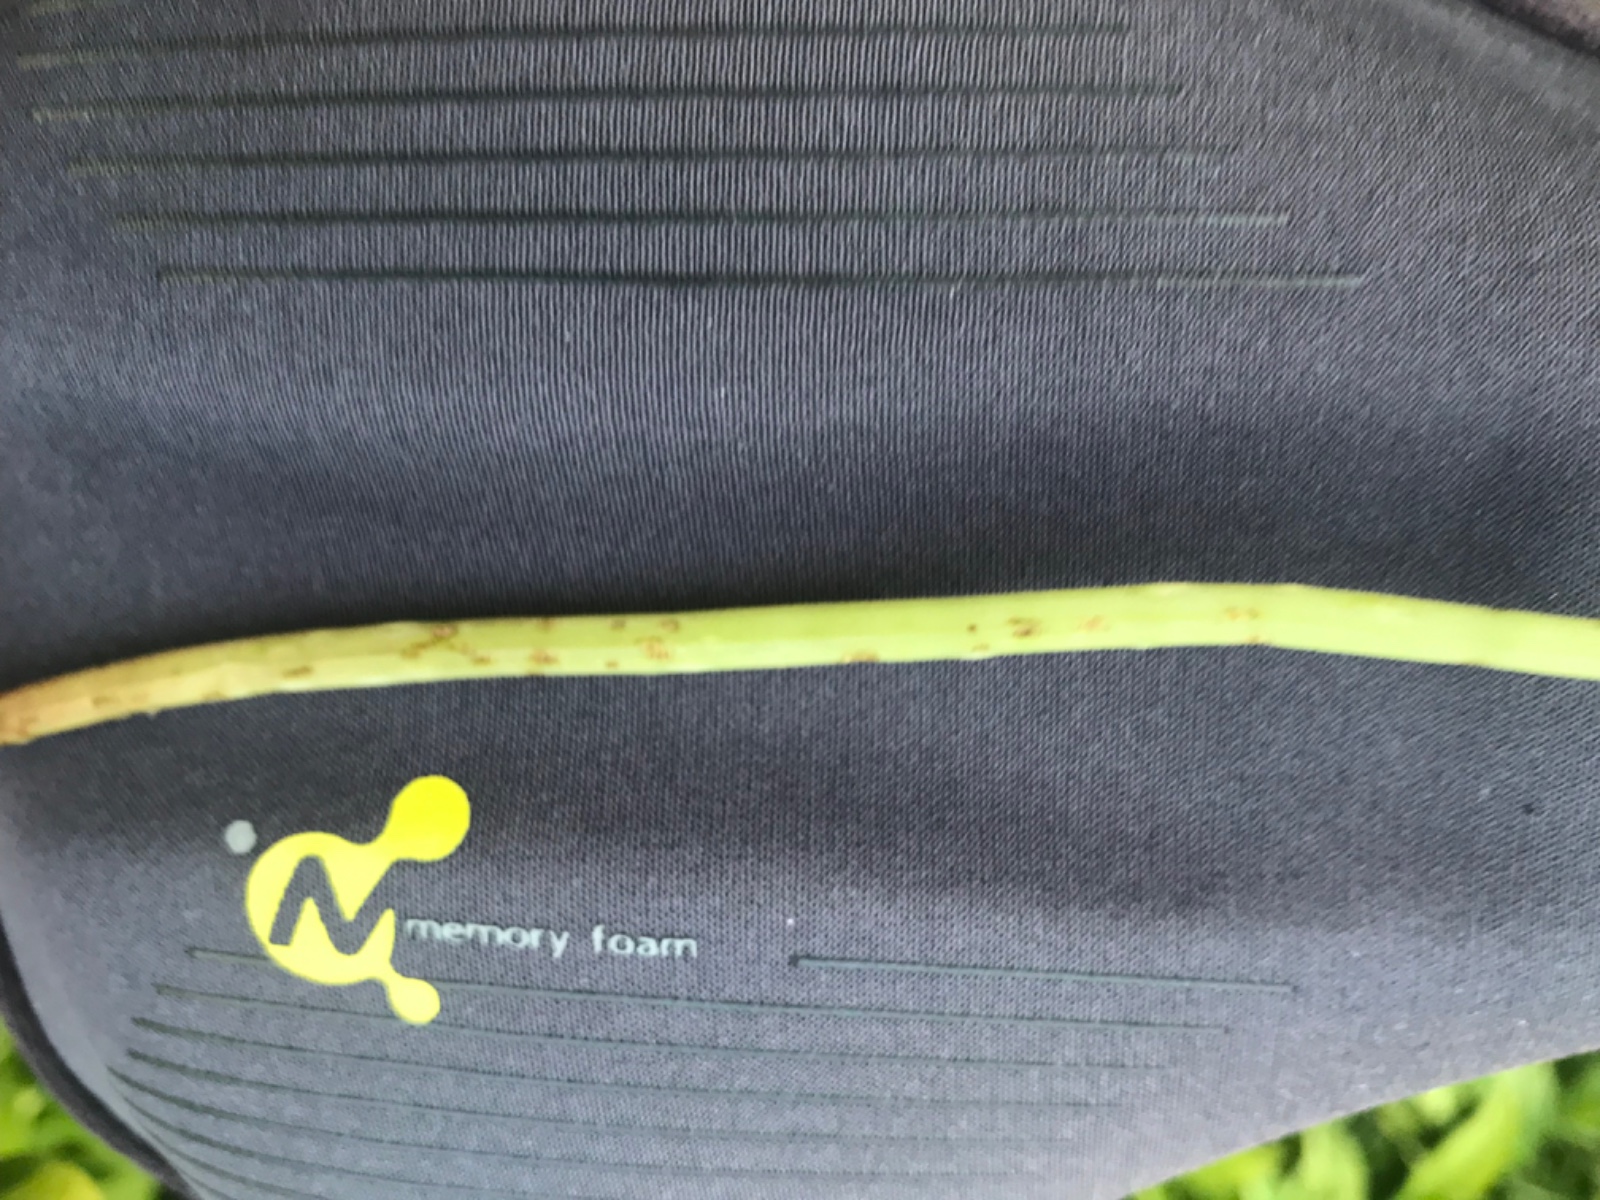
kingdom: Fungi
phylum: Ascomycota
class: Taphrinomycetes
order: Taphrinales
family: Taphrinaceae
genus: Protomyces
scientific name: Protomyces macrosporus
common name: skvalderkål-vablesæk
